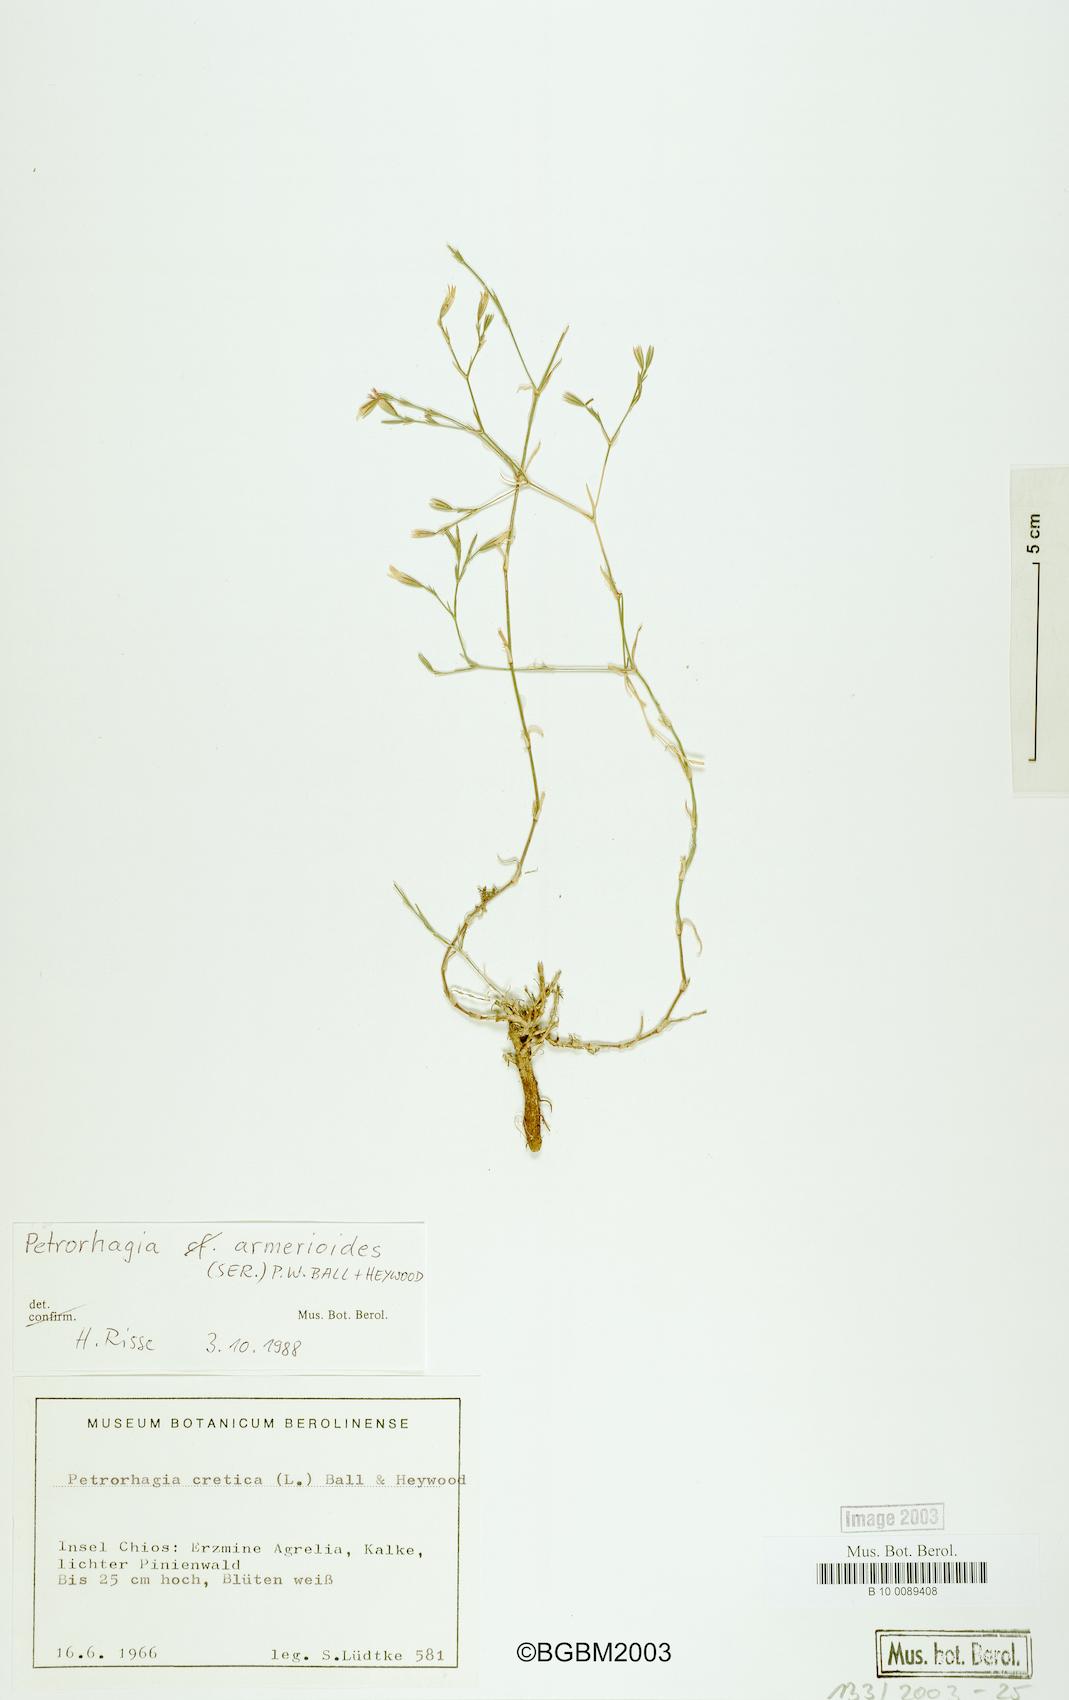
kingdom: Plantae
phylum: Tracheophyta
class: Magnoliopsida
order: Caryophyllales
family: Caryophyllaceae
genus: Dianthus
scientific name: Dianthus tunicoides
